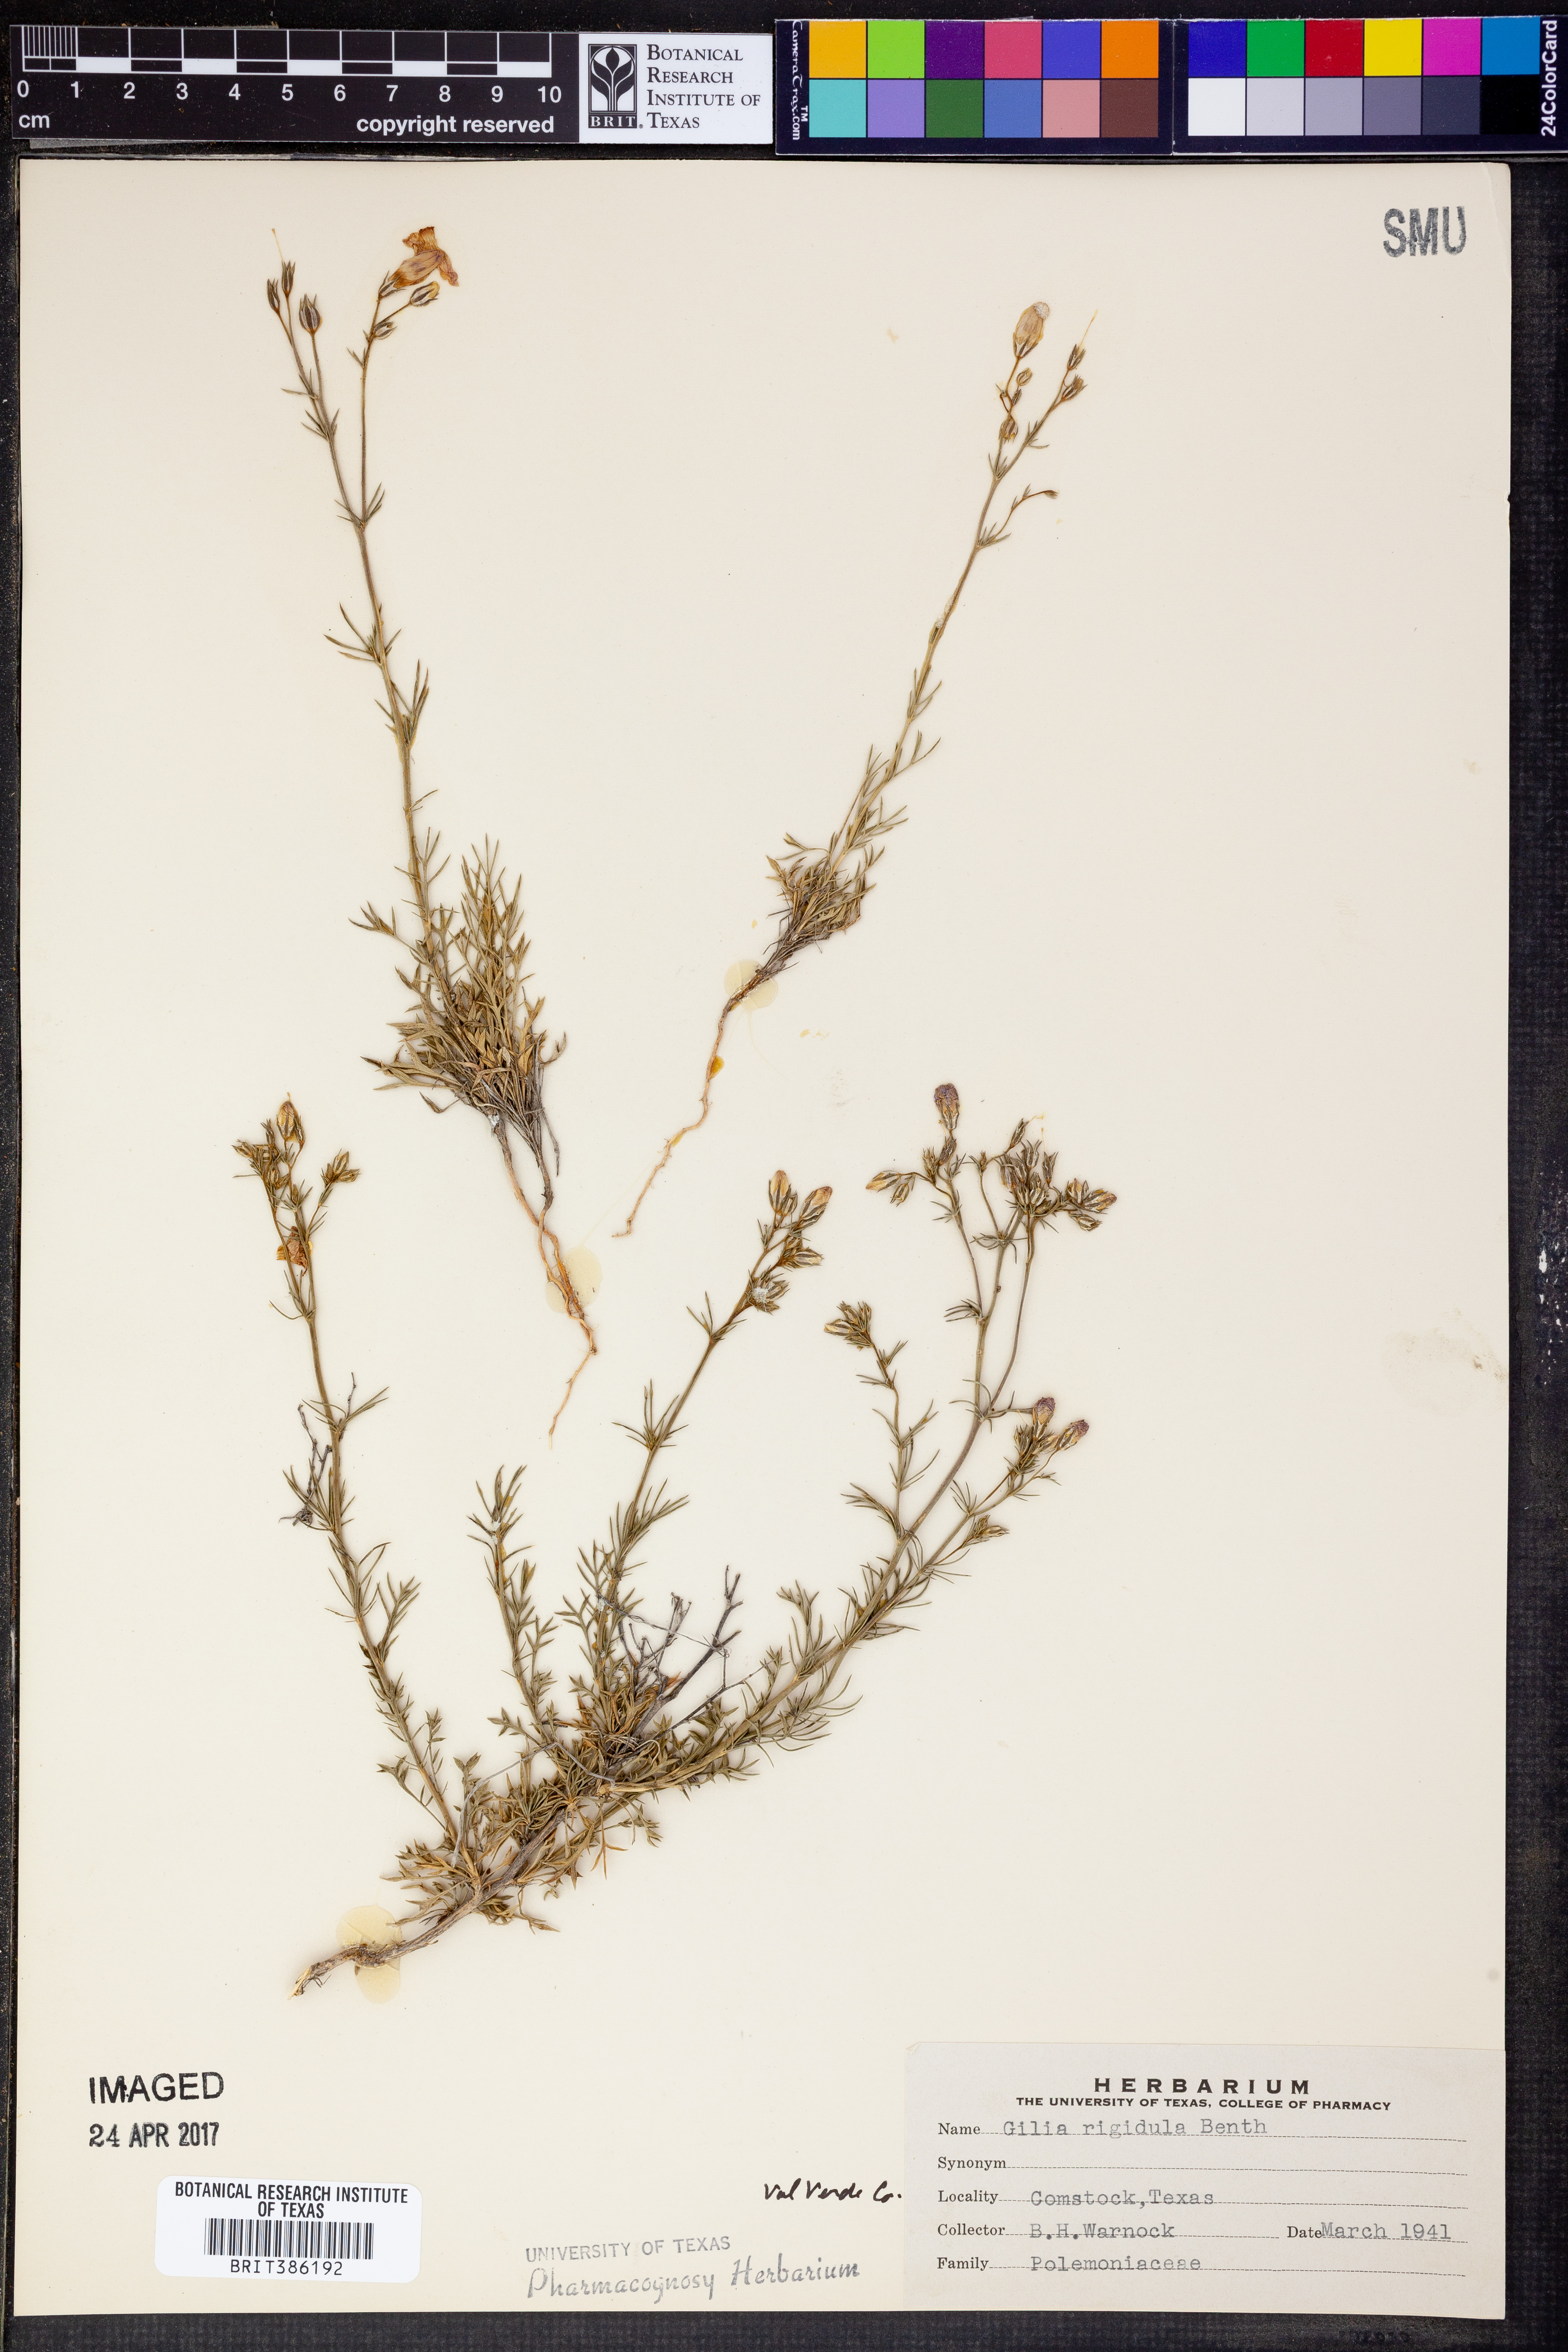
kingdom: Plantae
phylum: Tracheophyta
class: Magnoliopsida
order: Ericales
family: Polemoniaceae
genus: Giliastrum
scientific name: Giliastrum rigidulum
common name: Bluebowls
